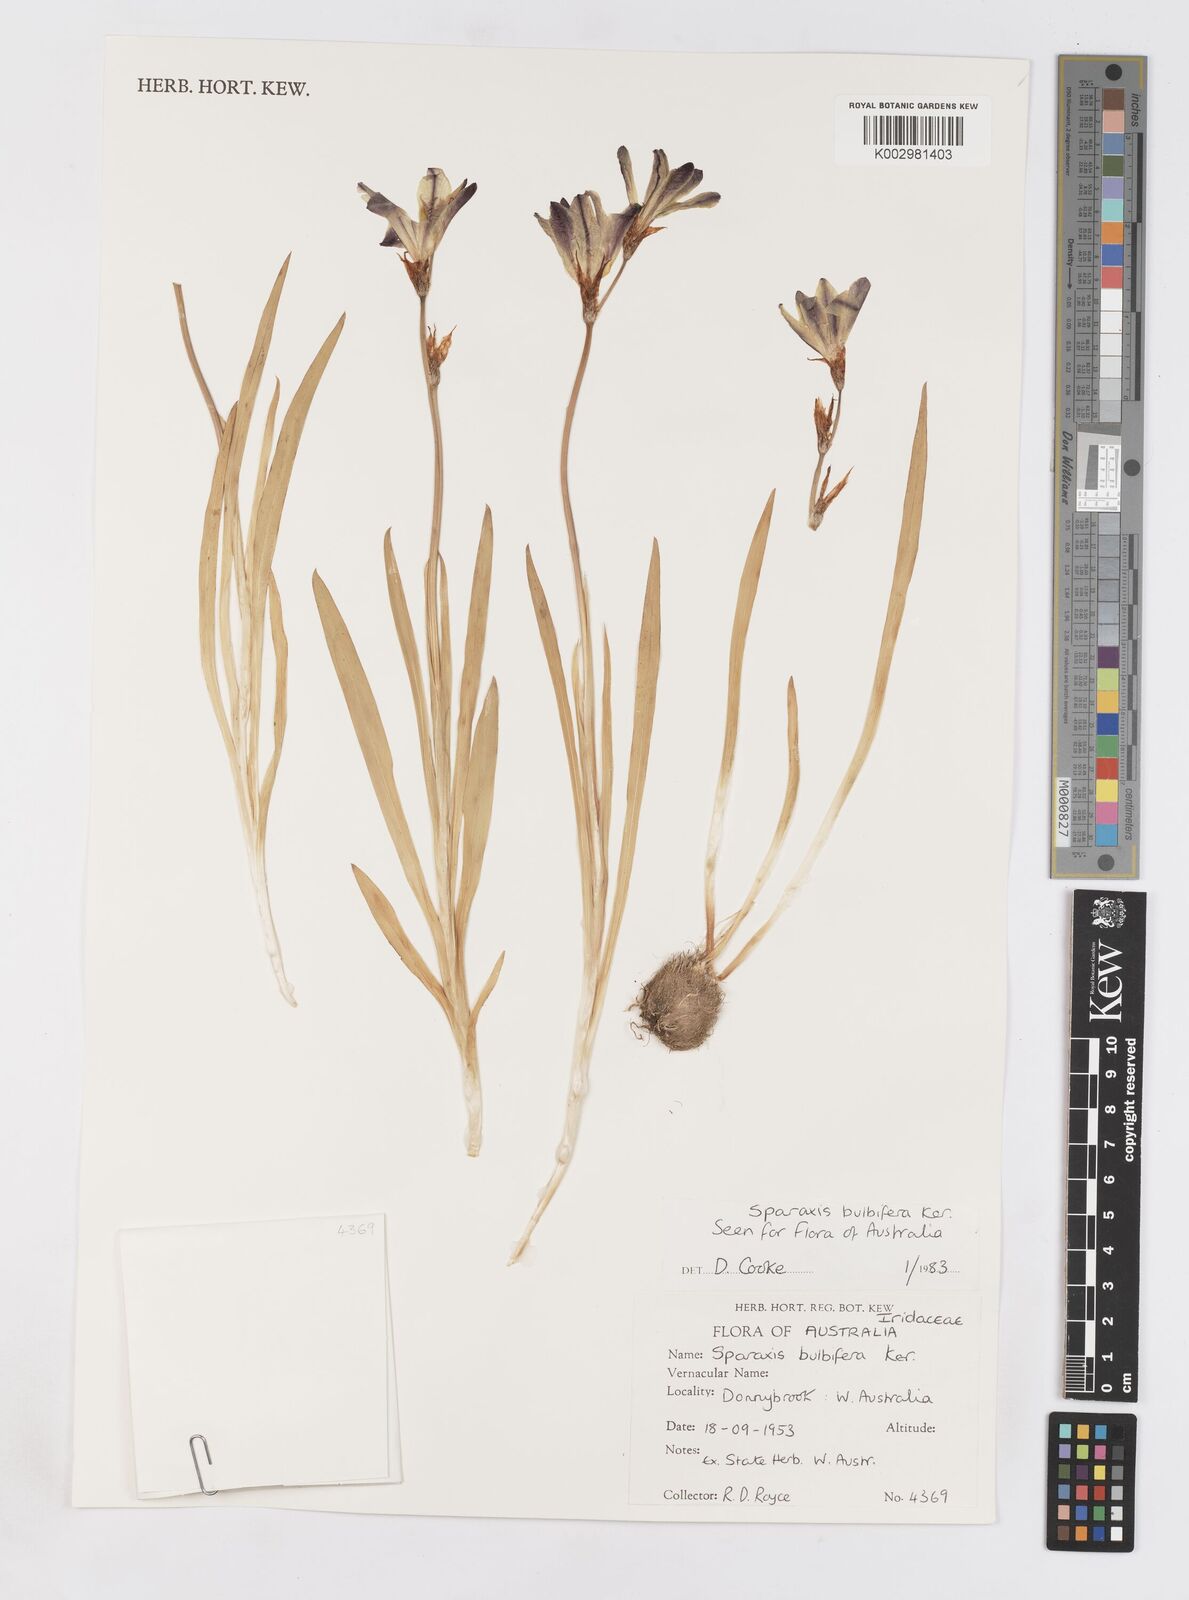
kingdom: Plantae
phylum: Tracheophyta
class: Liliopsida
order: Asparagales
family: Iridaceae
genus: Sparaxis
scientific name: Sparaxis bulbifera
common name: Harlequin-flower
